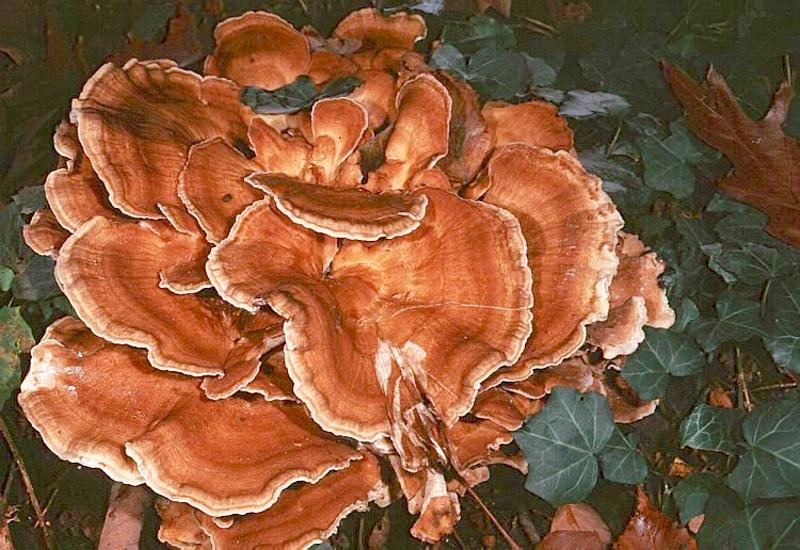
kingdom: Fungi
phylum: Basidiomycota
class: Agaricomycetes
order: Polyporales
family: Meripilaceae
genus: Meripilus
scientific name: Meripilus giganteus
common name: Giant polypore
